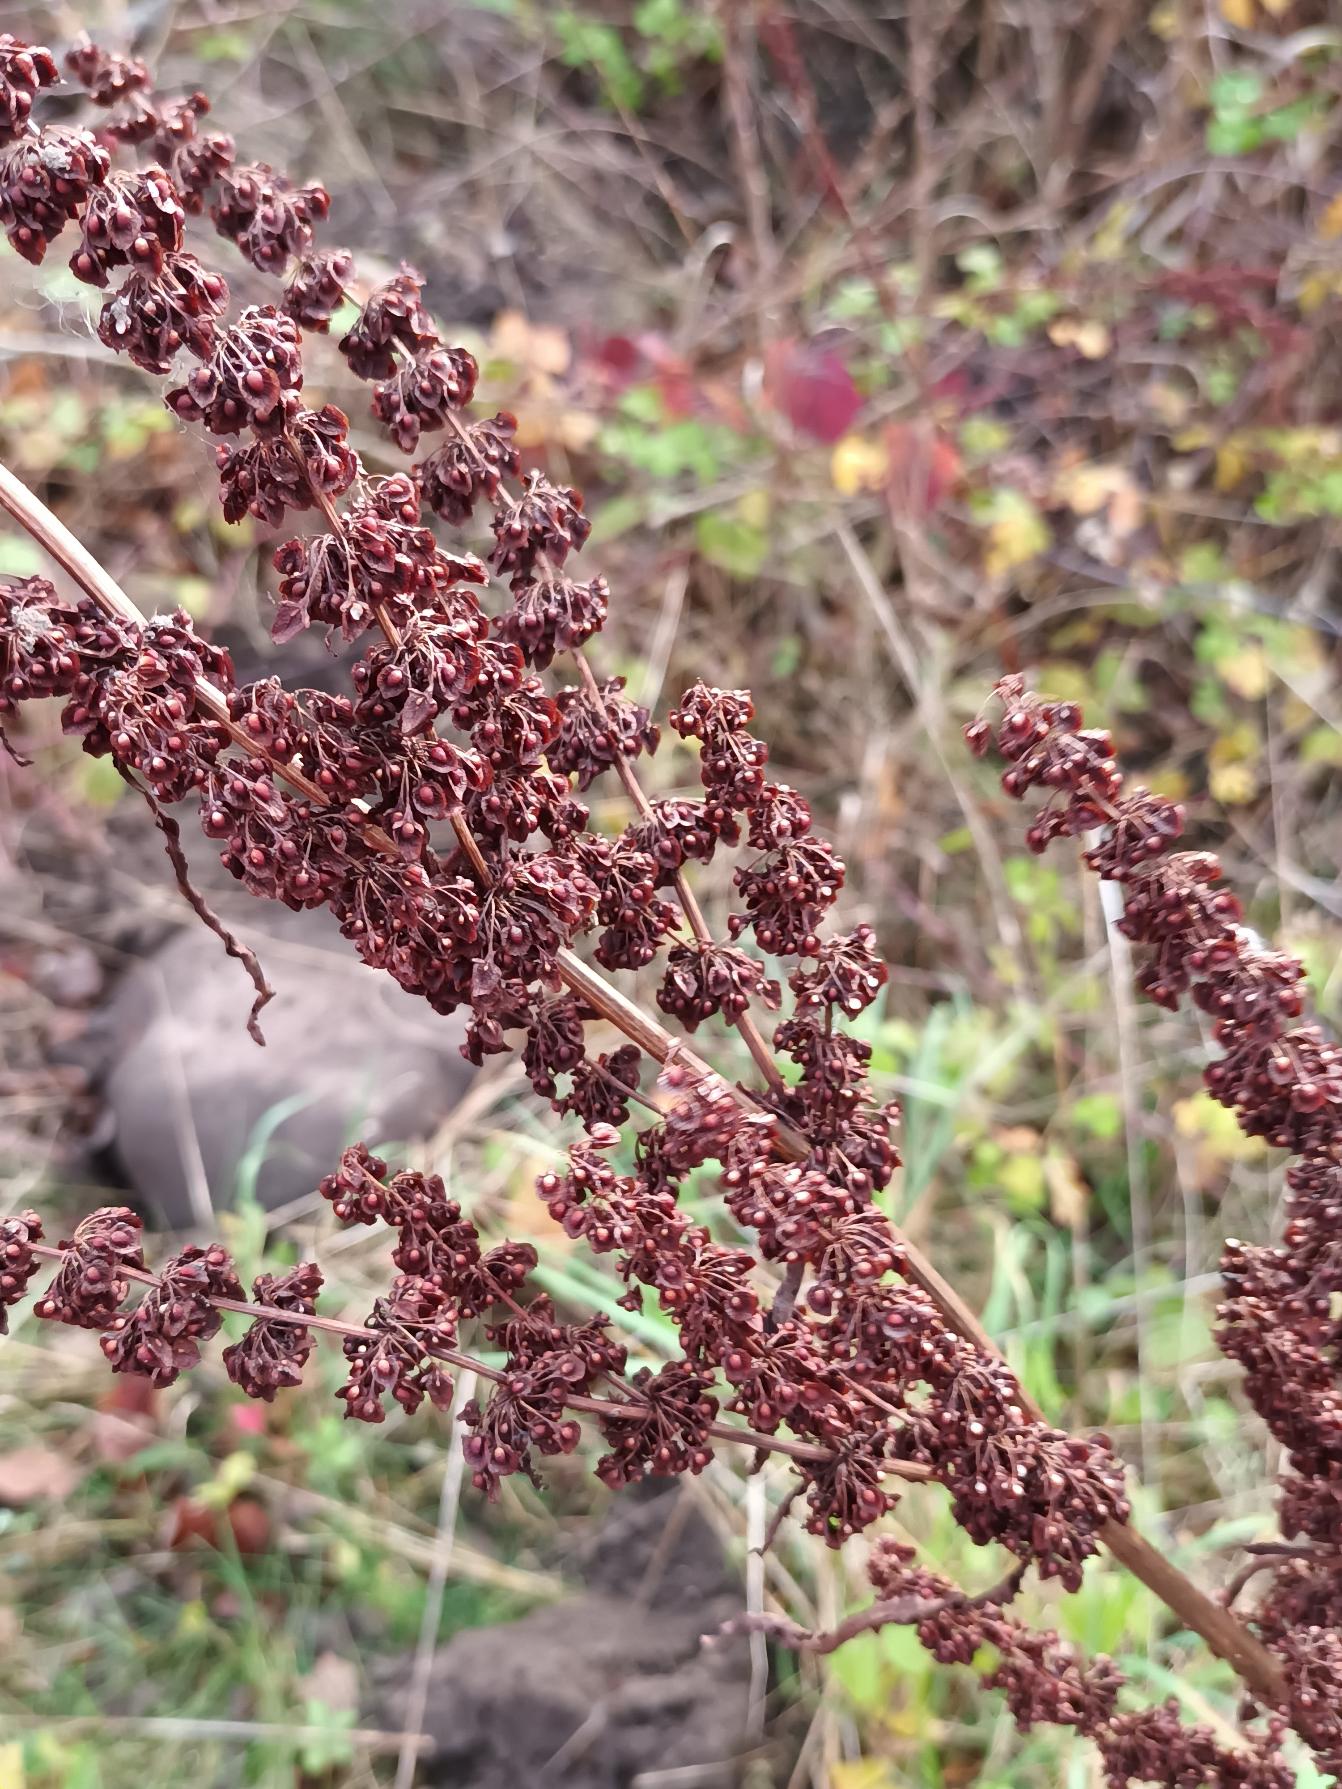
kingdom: Plantae
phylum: Tracheophyta
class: Magnoliopsida
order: Caryophyllales
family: Polygonaceae
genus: Rumex
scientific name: Rumex crispus
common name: Kruset skræppe
